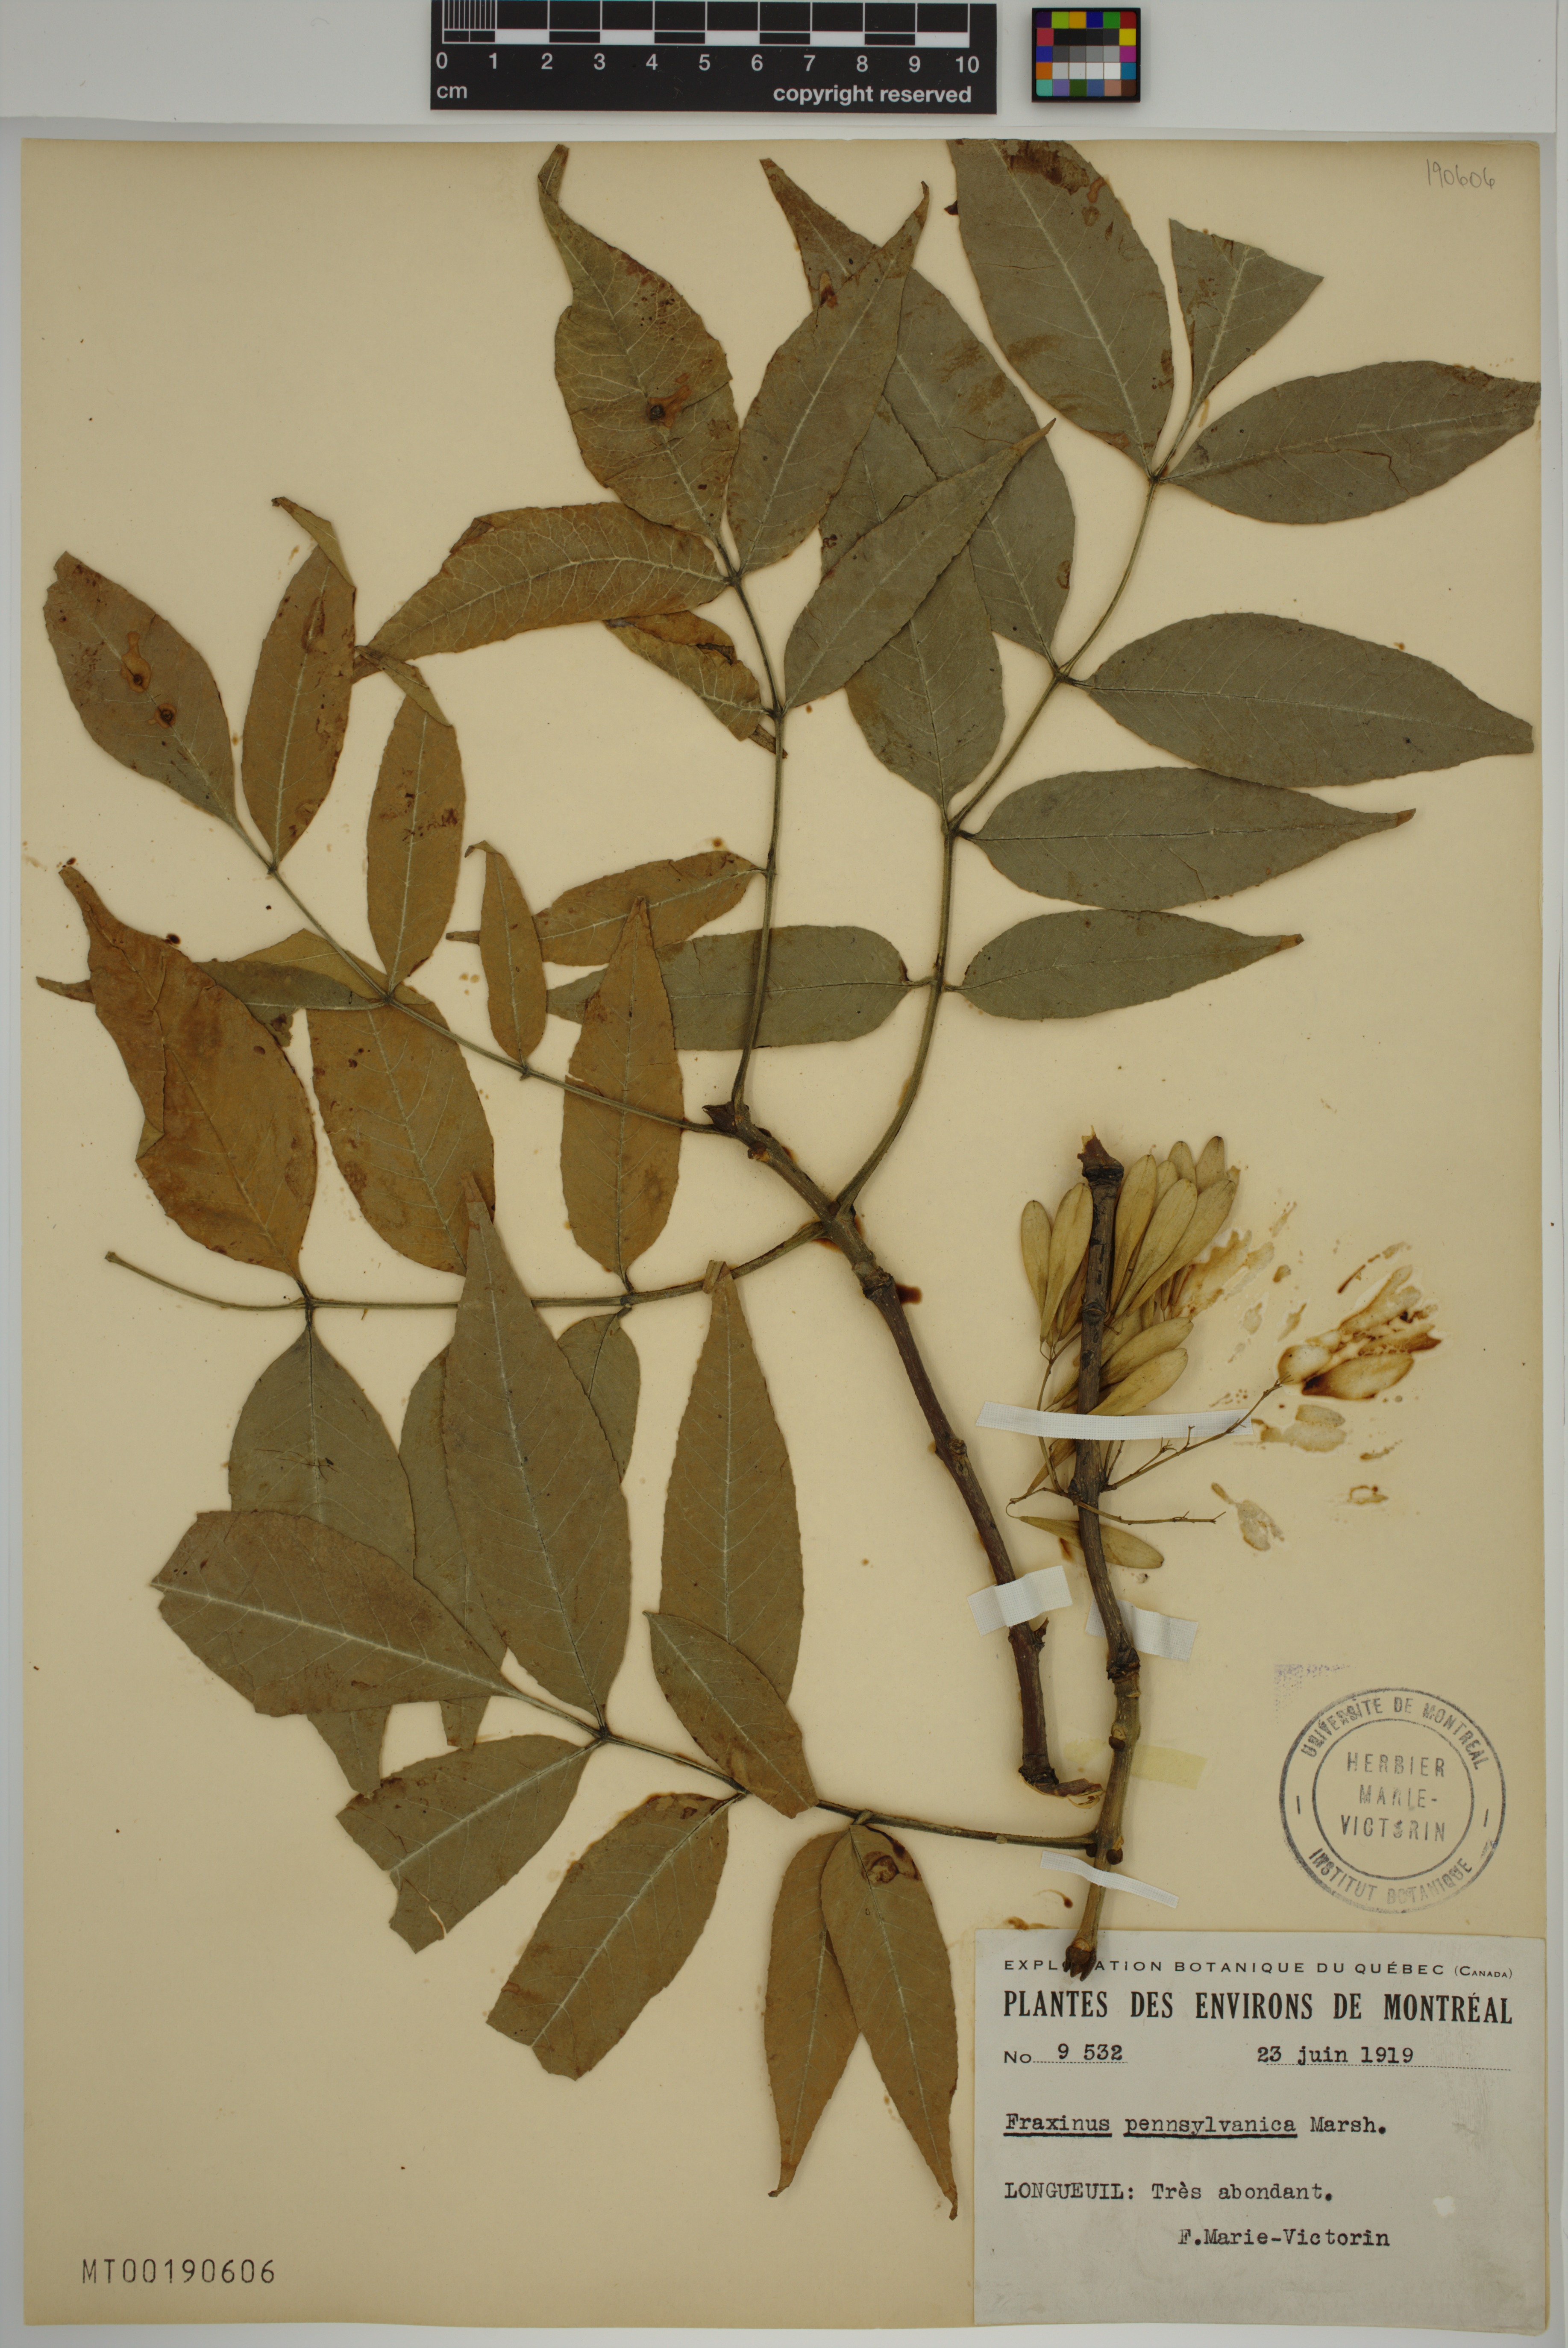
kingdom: Plantae
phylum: Tracheophyta
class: Magnoliopsida
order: Lamiales
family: Oleaceae
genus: Fraxinus
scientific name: Fraxinus pennsylvanica
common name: Green ash
